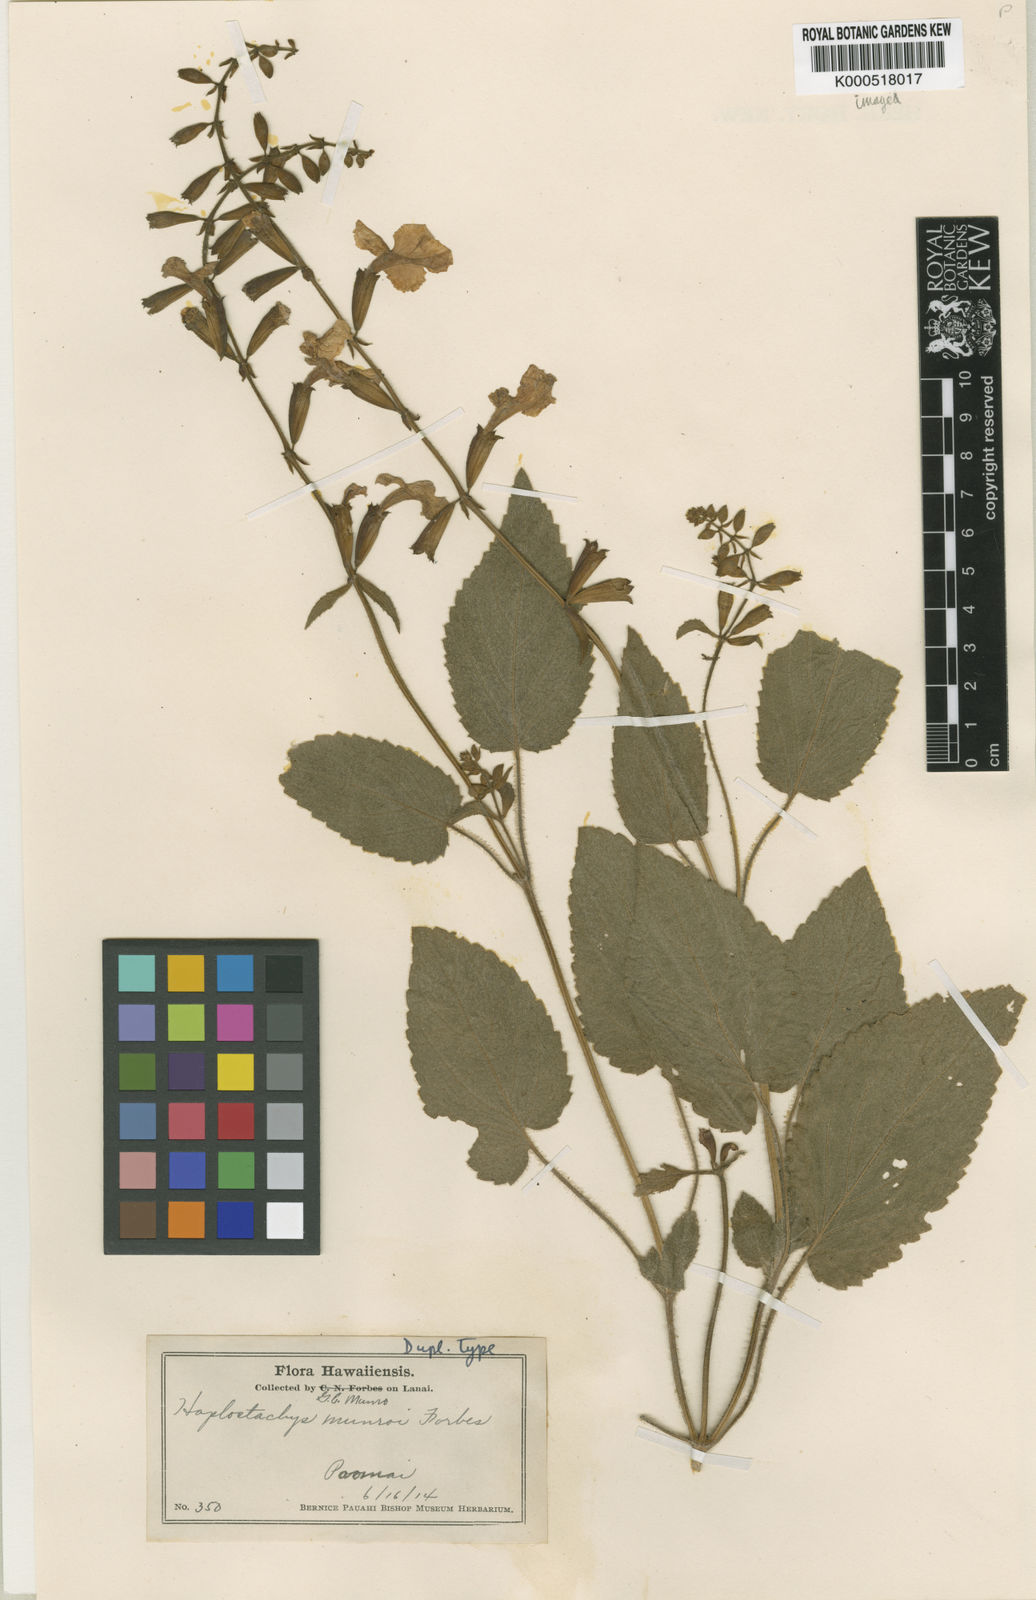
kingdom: Plantae
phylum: Tracheophyta
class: Magnoliopsida
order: Lamiales
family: Lamiaceae
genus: Haplostachys
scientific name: Haplostachys munroi
